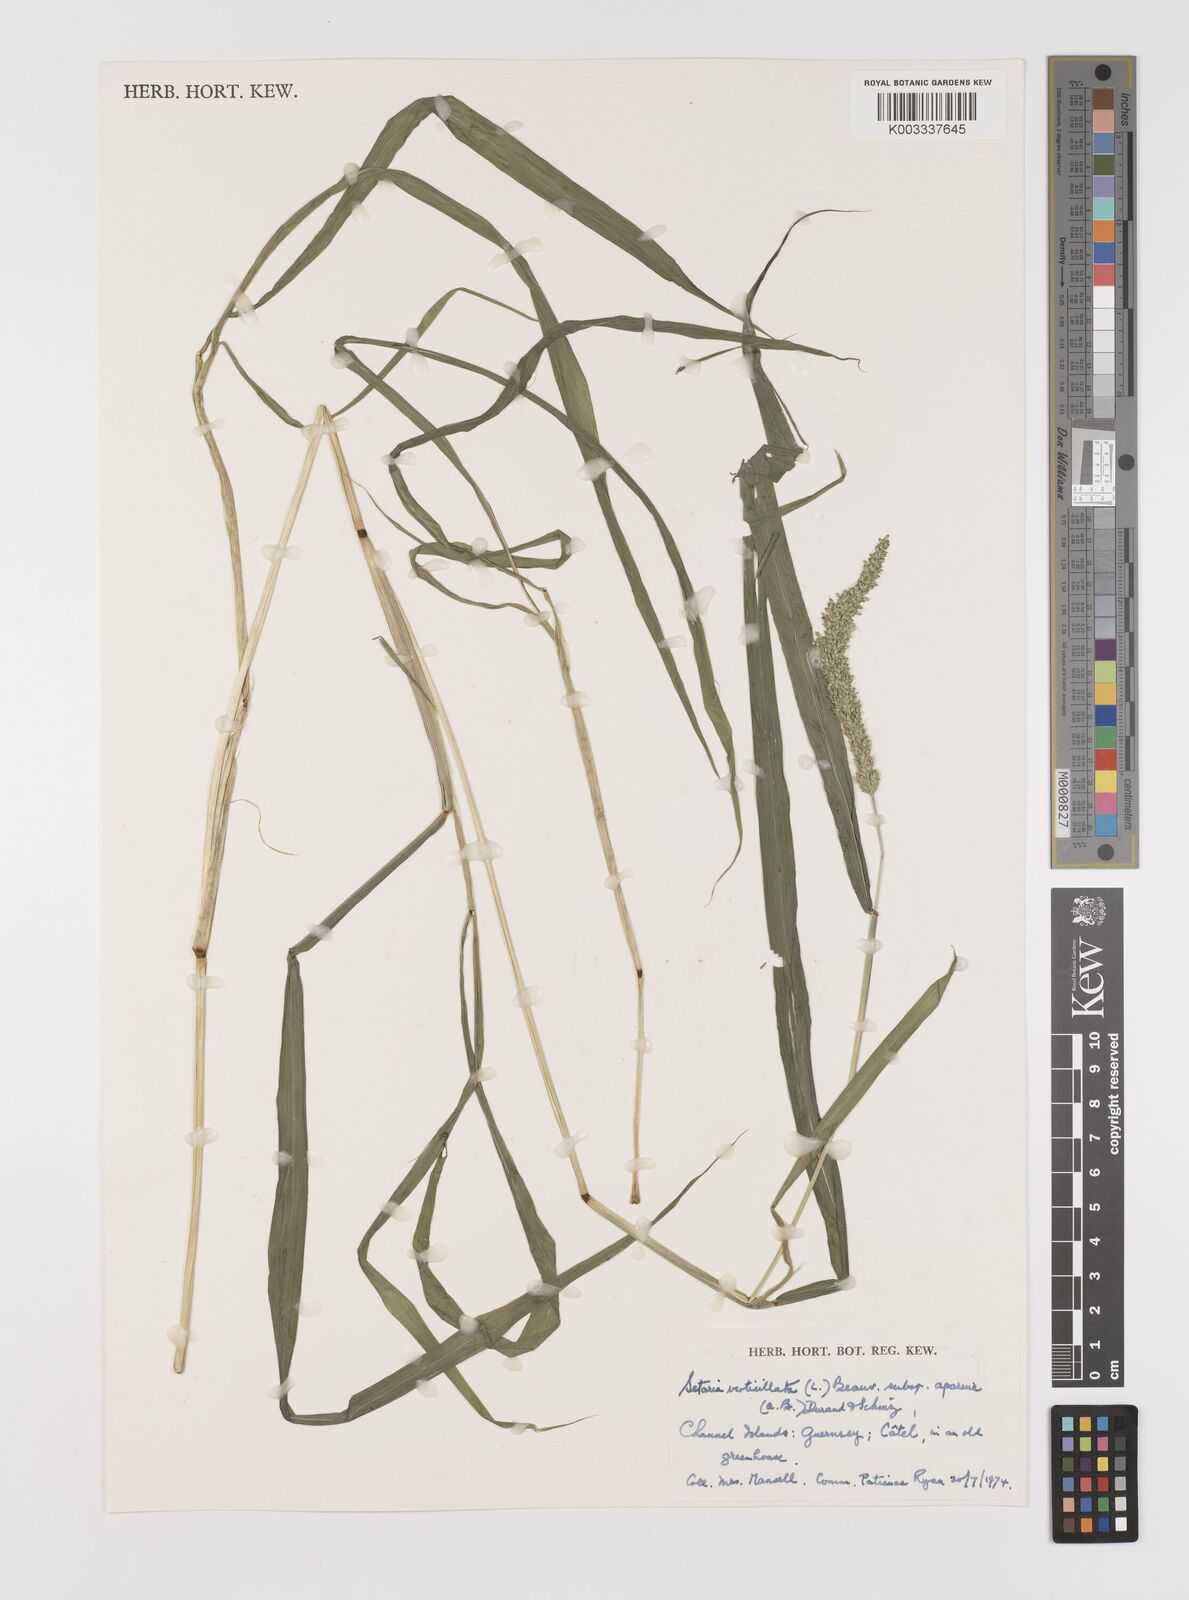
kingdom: Plantae
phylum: Tracheophyta
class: Liliopsida
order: Poales
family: Poaceae
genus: Setaria
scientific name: Setaria verticillata
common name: Hooked bristlegrass
